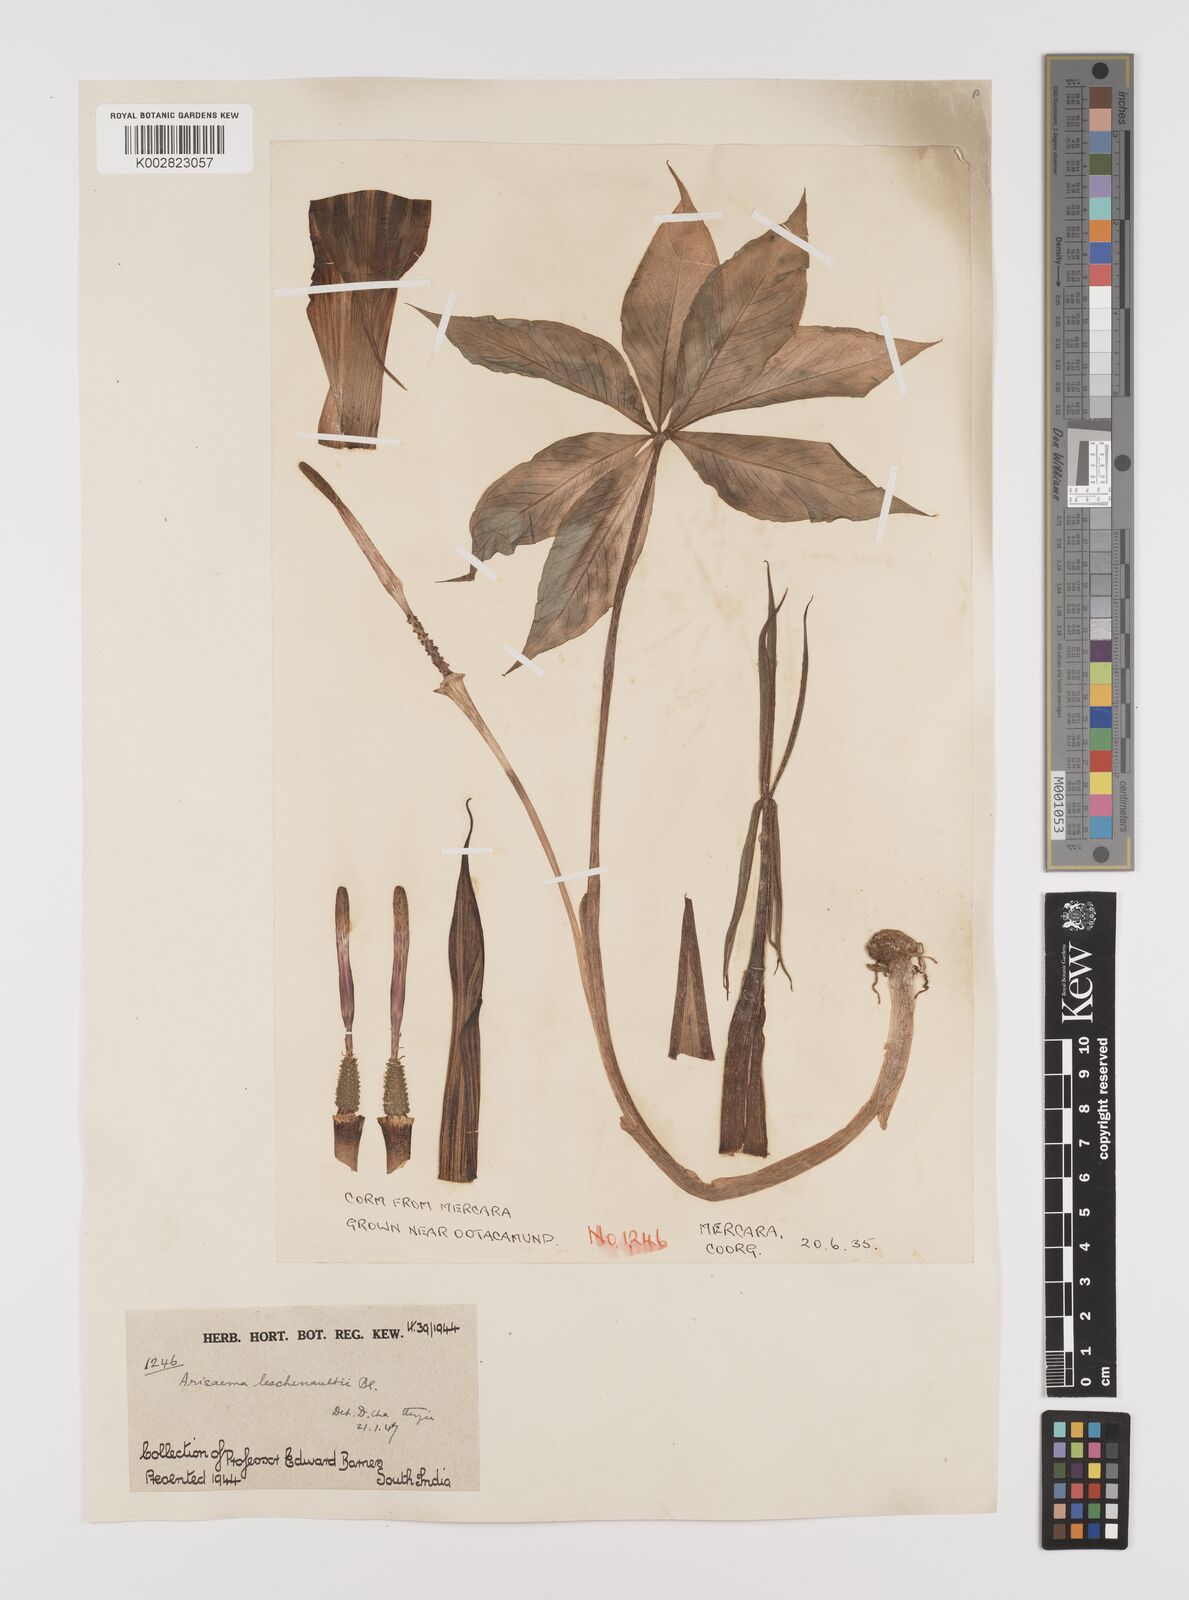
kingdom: Plantae
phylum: Tracheophyta
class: Liliopsida
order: Alismatales
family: Araceae
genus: Arisaema
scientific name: Arisaema leschenaultii
